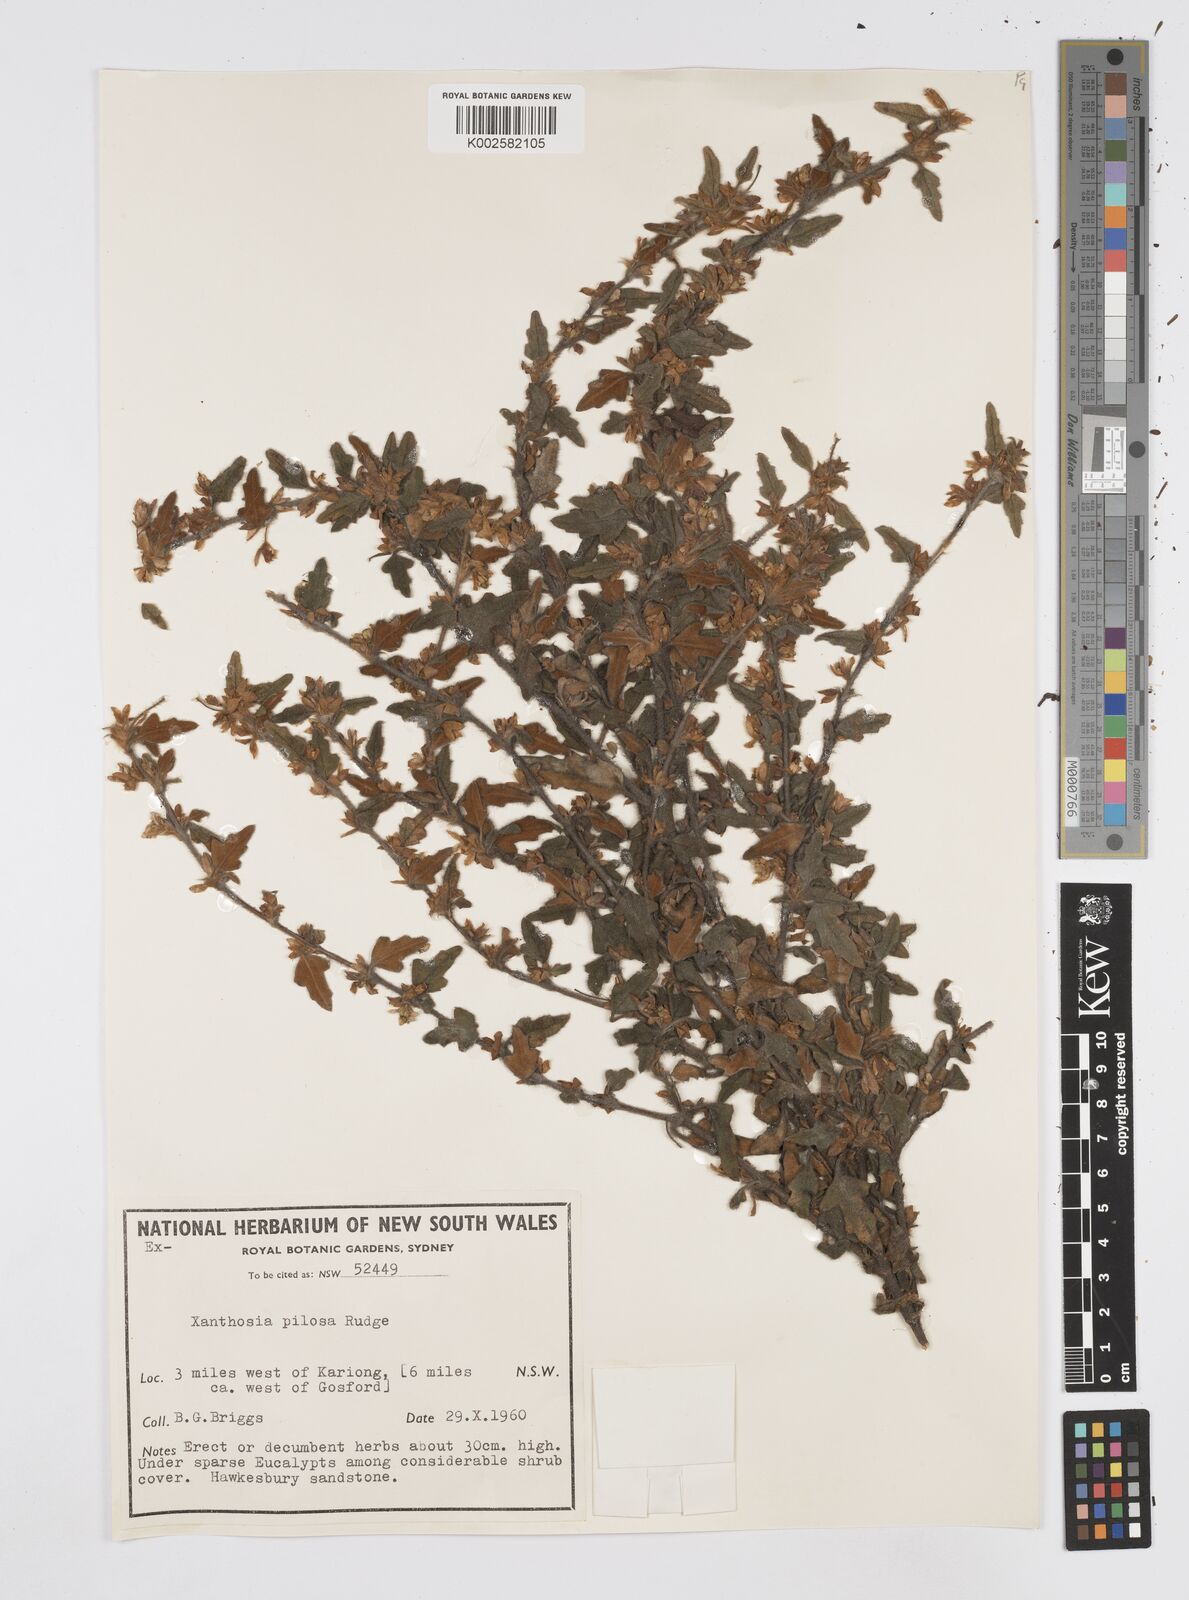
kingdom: Plantae
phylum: Tracheophyta
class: Magnoliopsida
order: Apiales
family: Apiaceae
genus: Xanthosia
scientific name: Xanthosia pilosa
